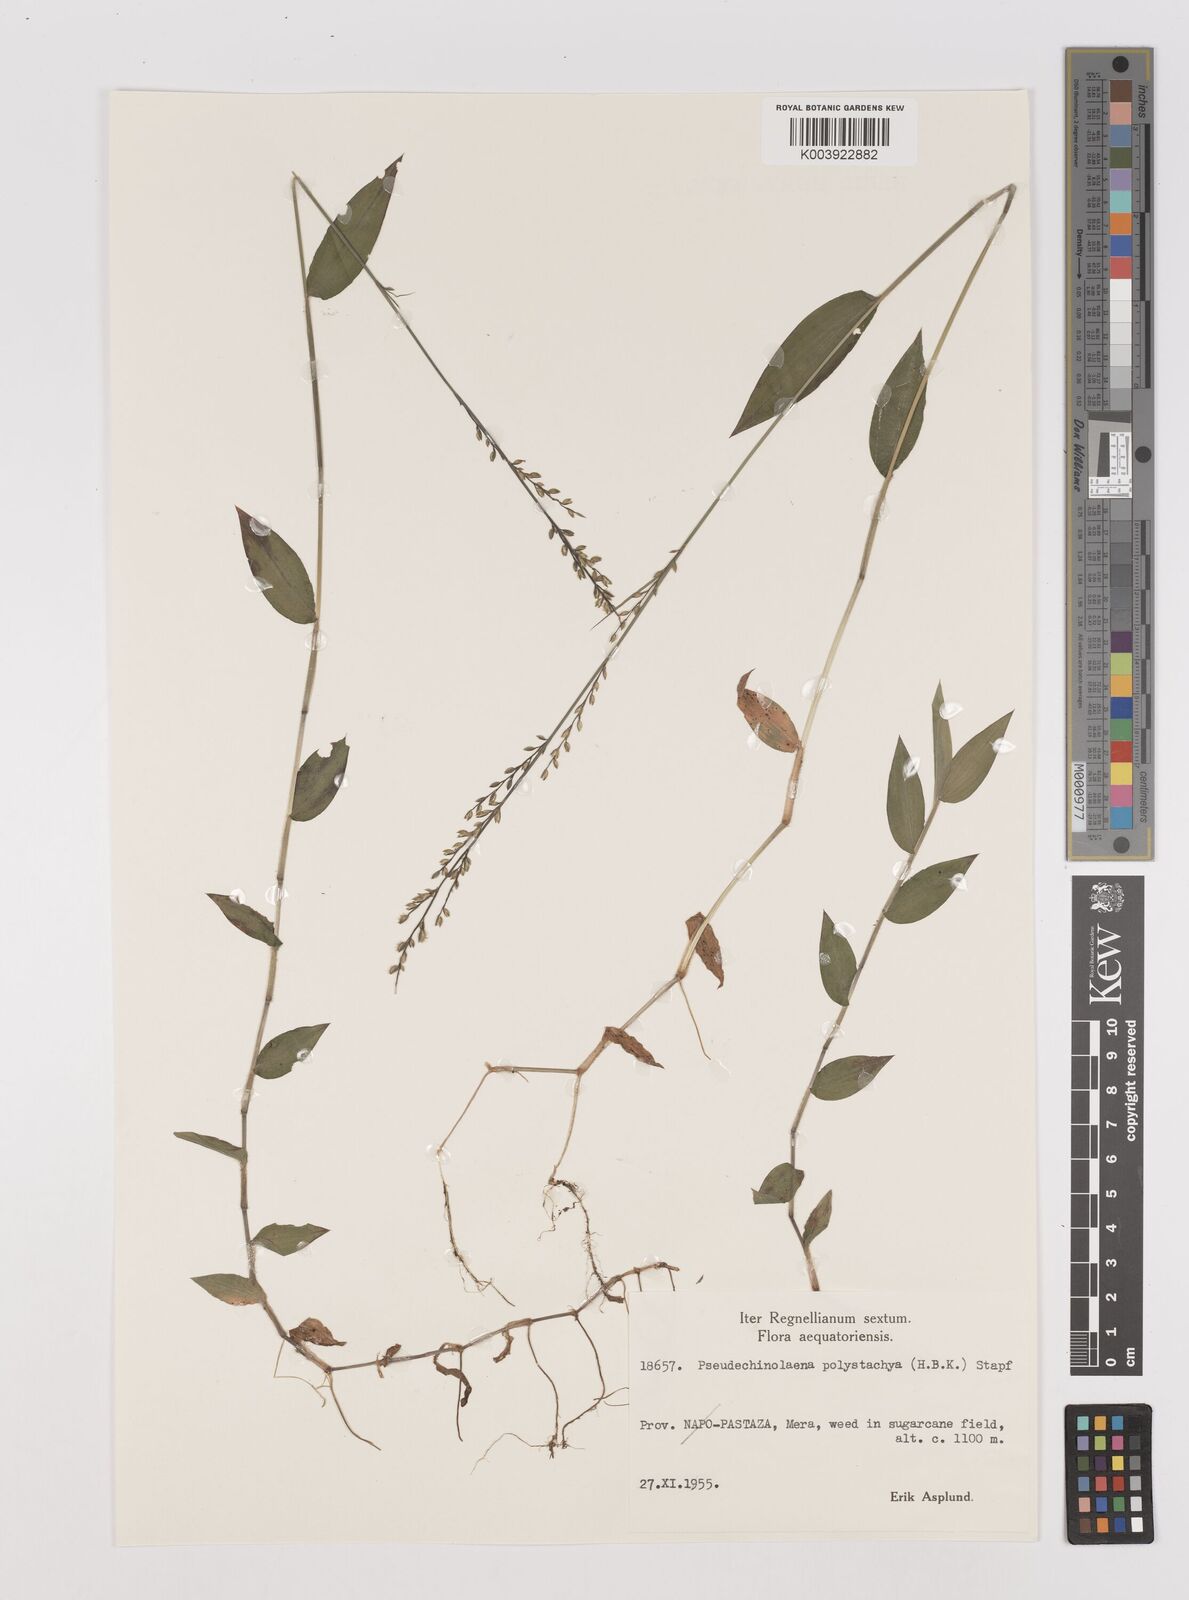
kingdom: Plantae
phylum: Tracheophyta
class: Liliopsida
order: Poales
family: Poaceae
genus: Pseudechinolaena
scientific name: Pseudechinolaena polystachya
